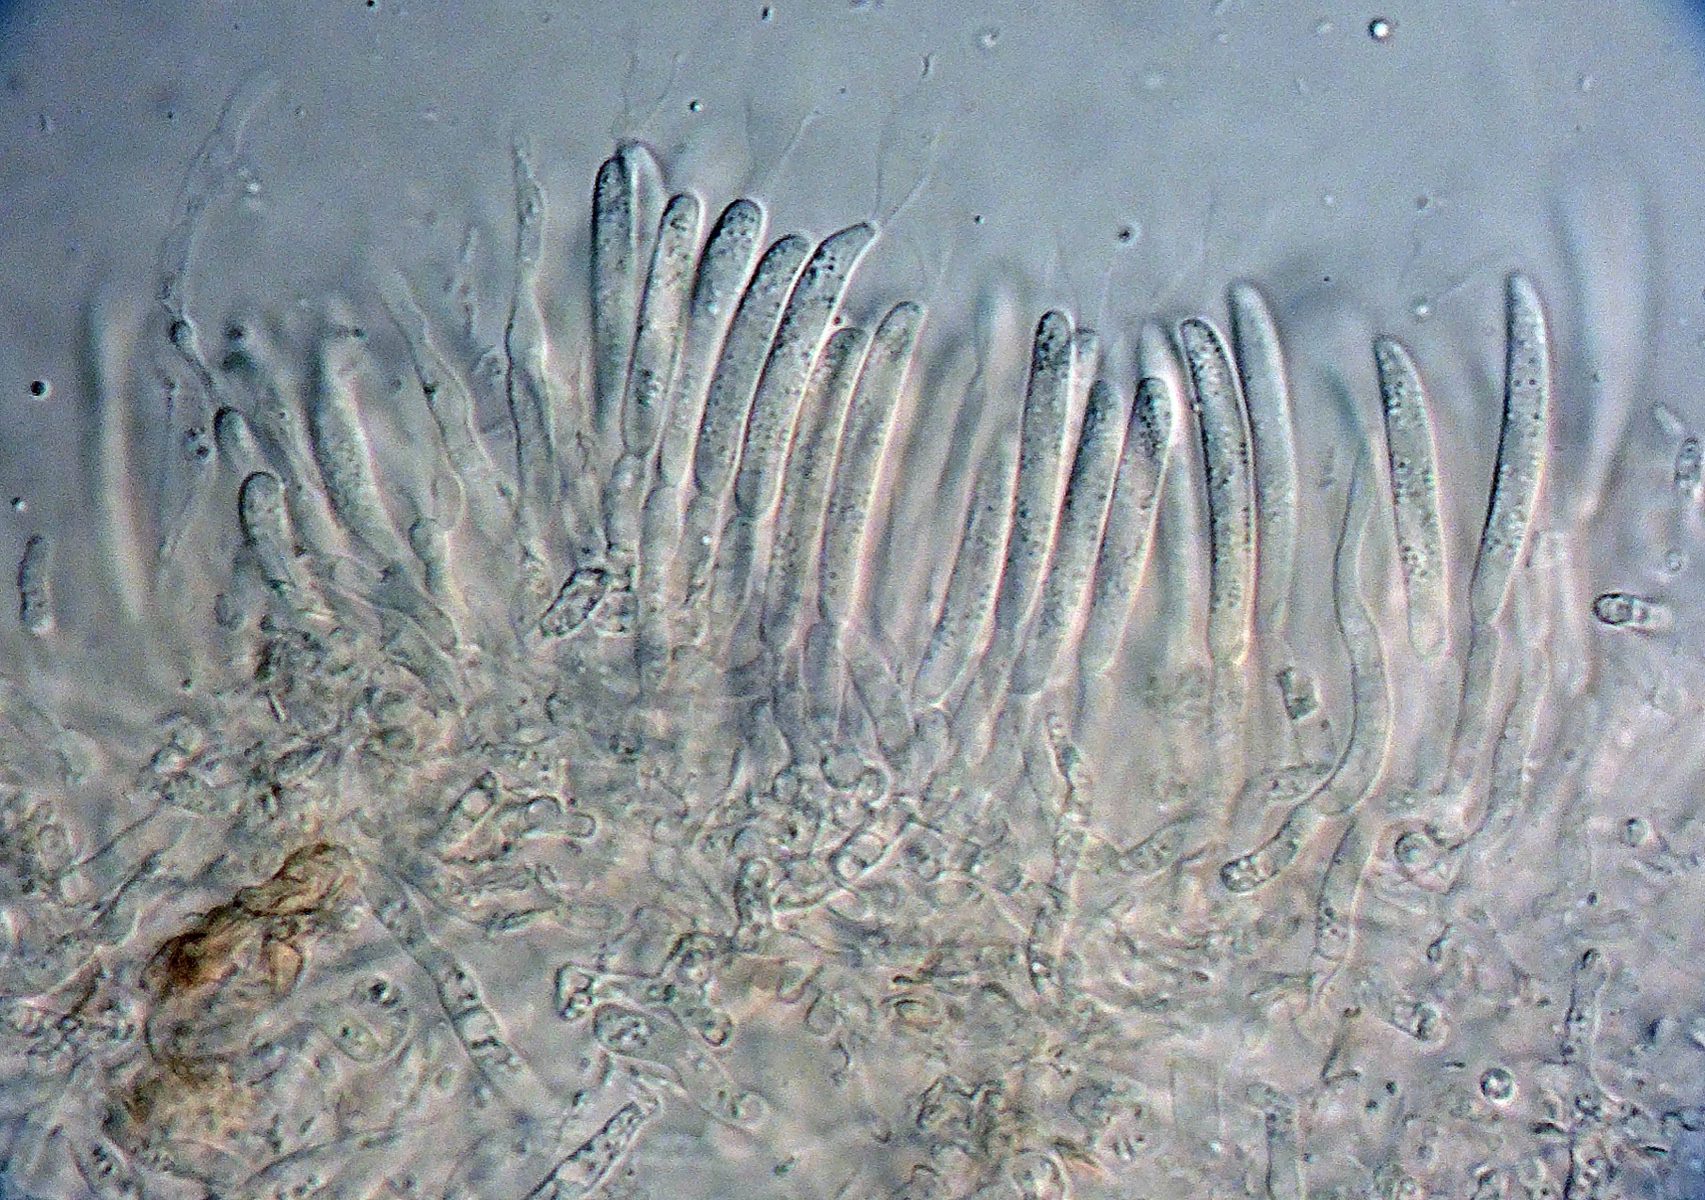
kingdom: Fungi
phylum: Basidiomycota
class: Atractiellomycetes
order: Atractiellales
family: Phleogenaceae
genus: Infundibura
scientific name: Infundibura adhaerens
